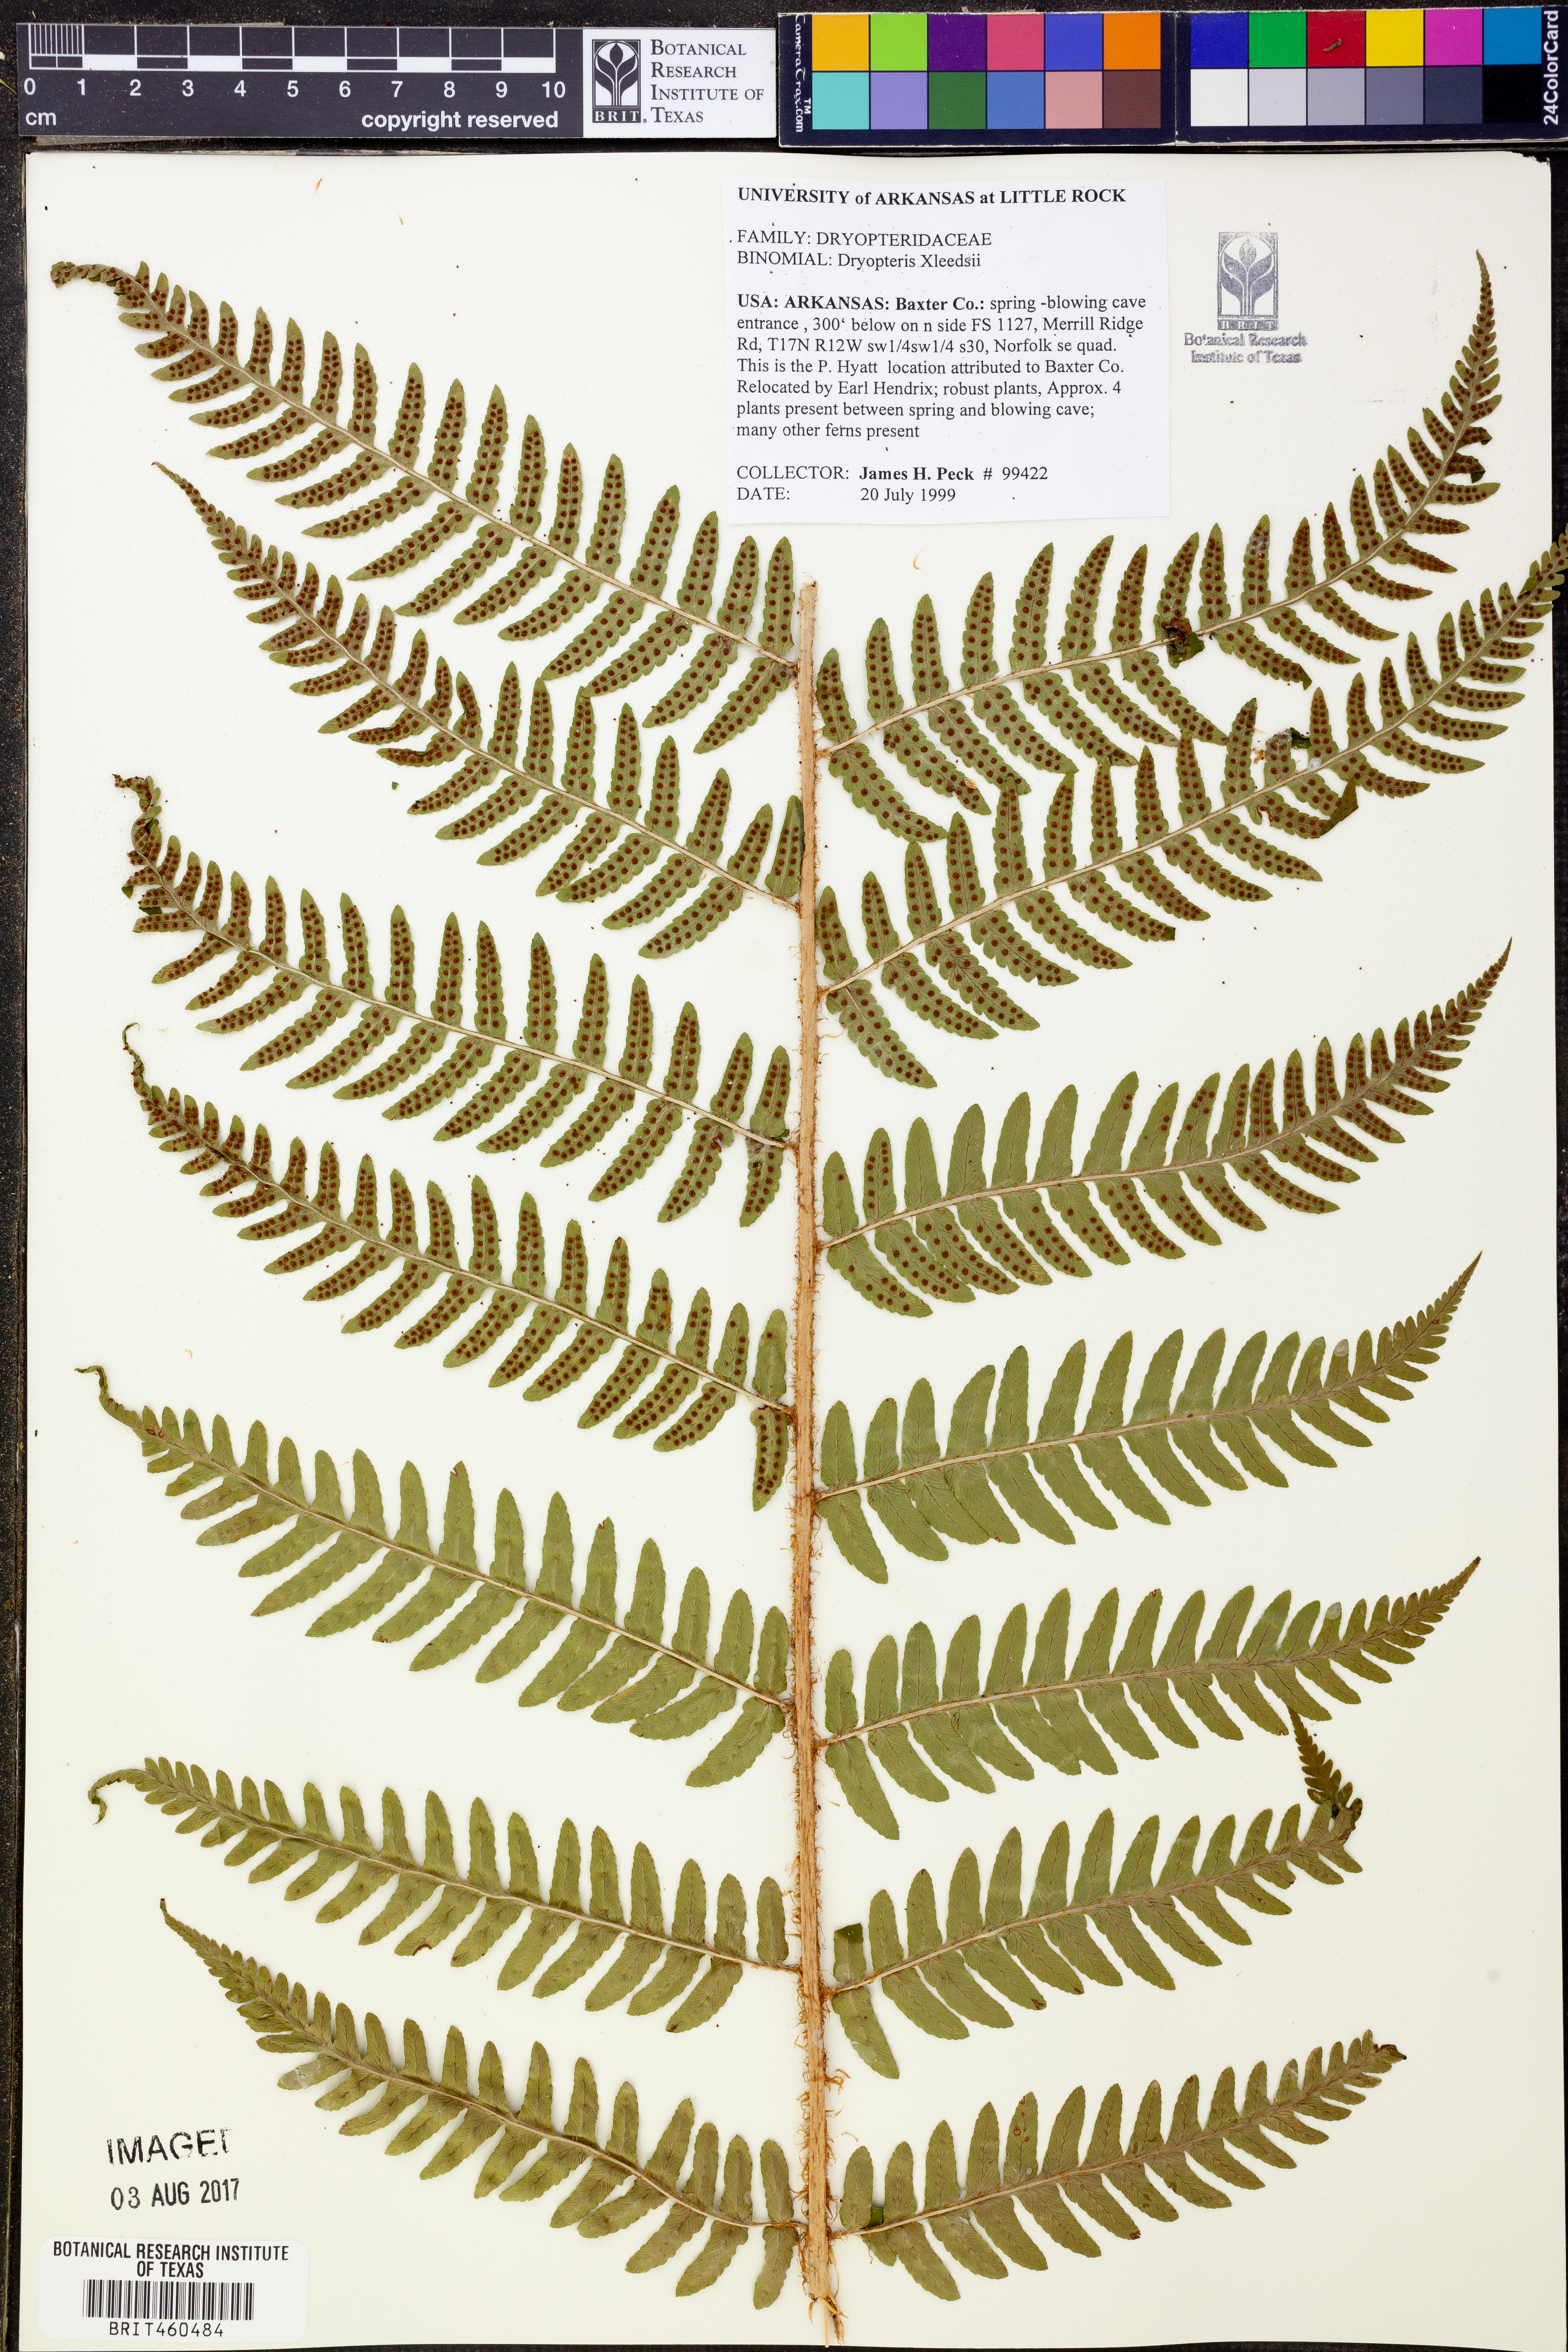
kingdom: Plantae
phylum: Tracheophyta
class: Polypodiopsida
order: Polypodiales
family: Dryopteridaceae
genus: Dryopteris
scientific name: Dryopteris
